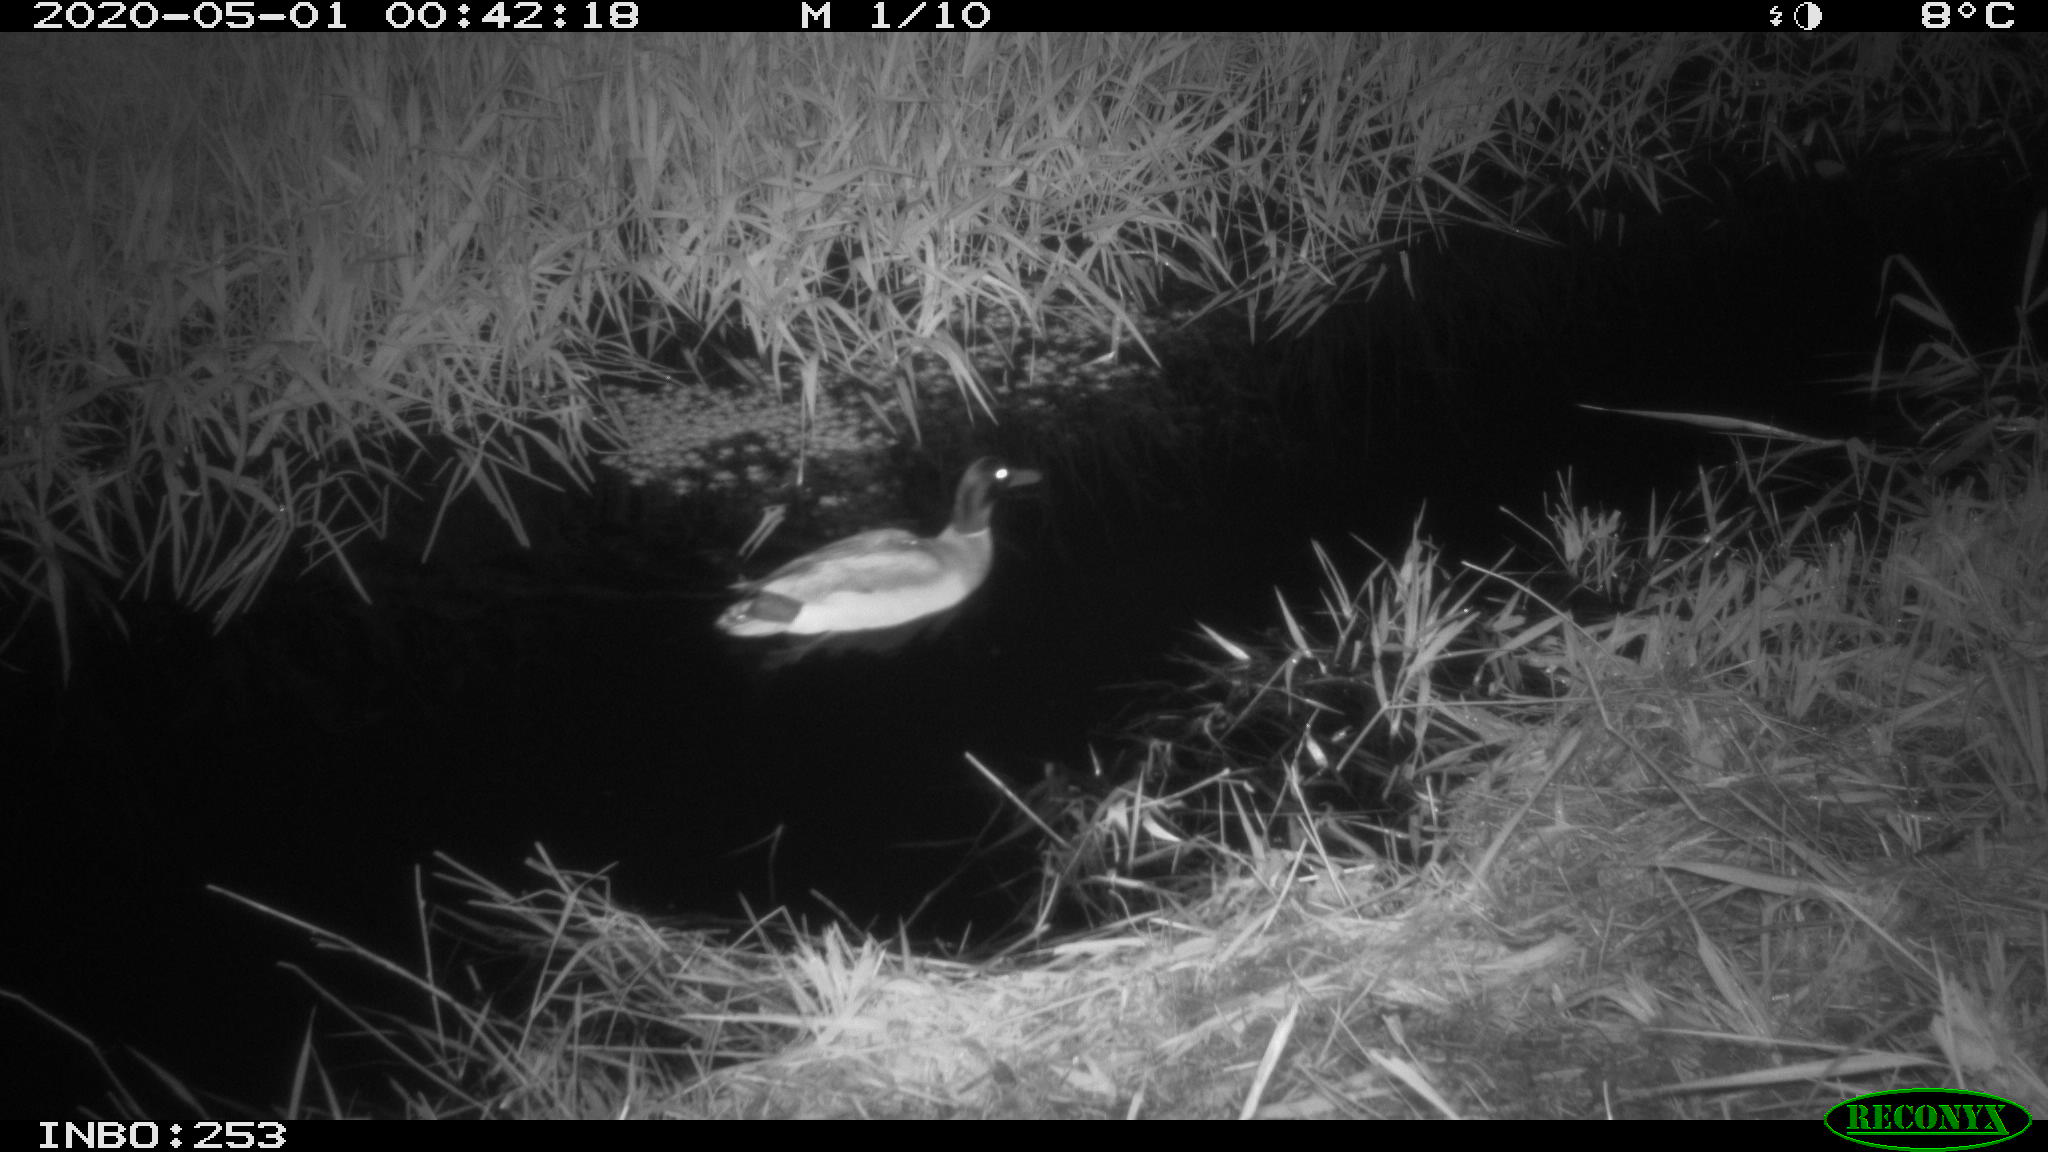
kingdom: Animalia
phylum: Chordata
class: Aves
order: Anseriformes
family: Anatidae
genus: Anas
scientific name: Anas platyrhynchos
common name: Mallard
